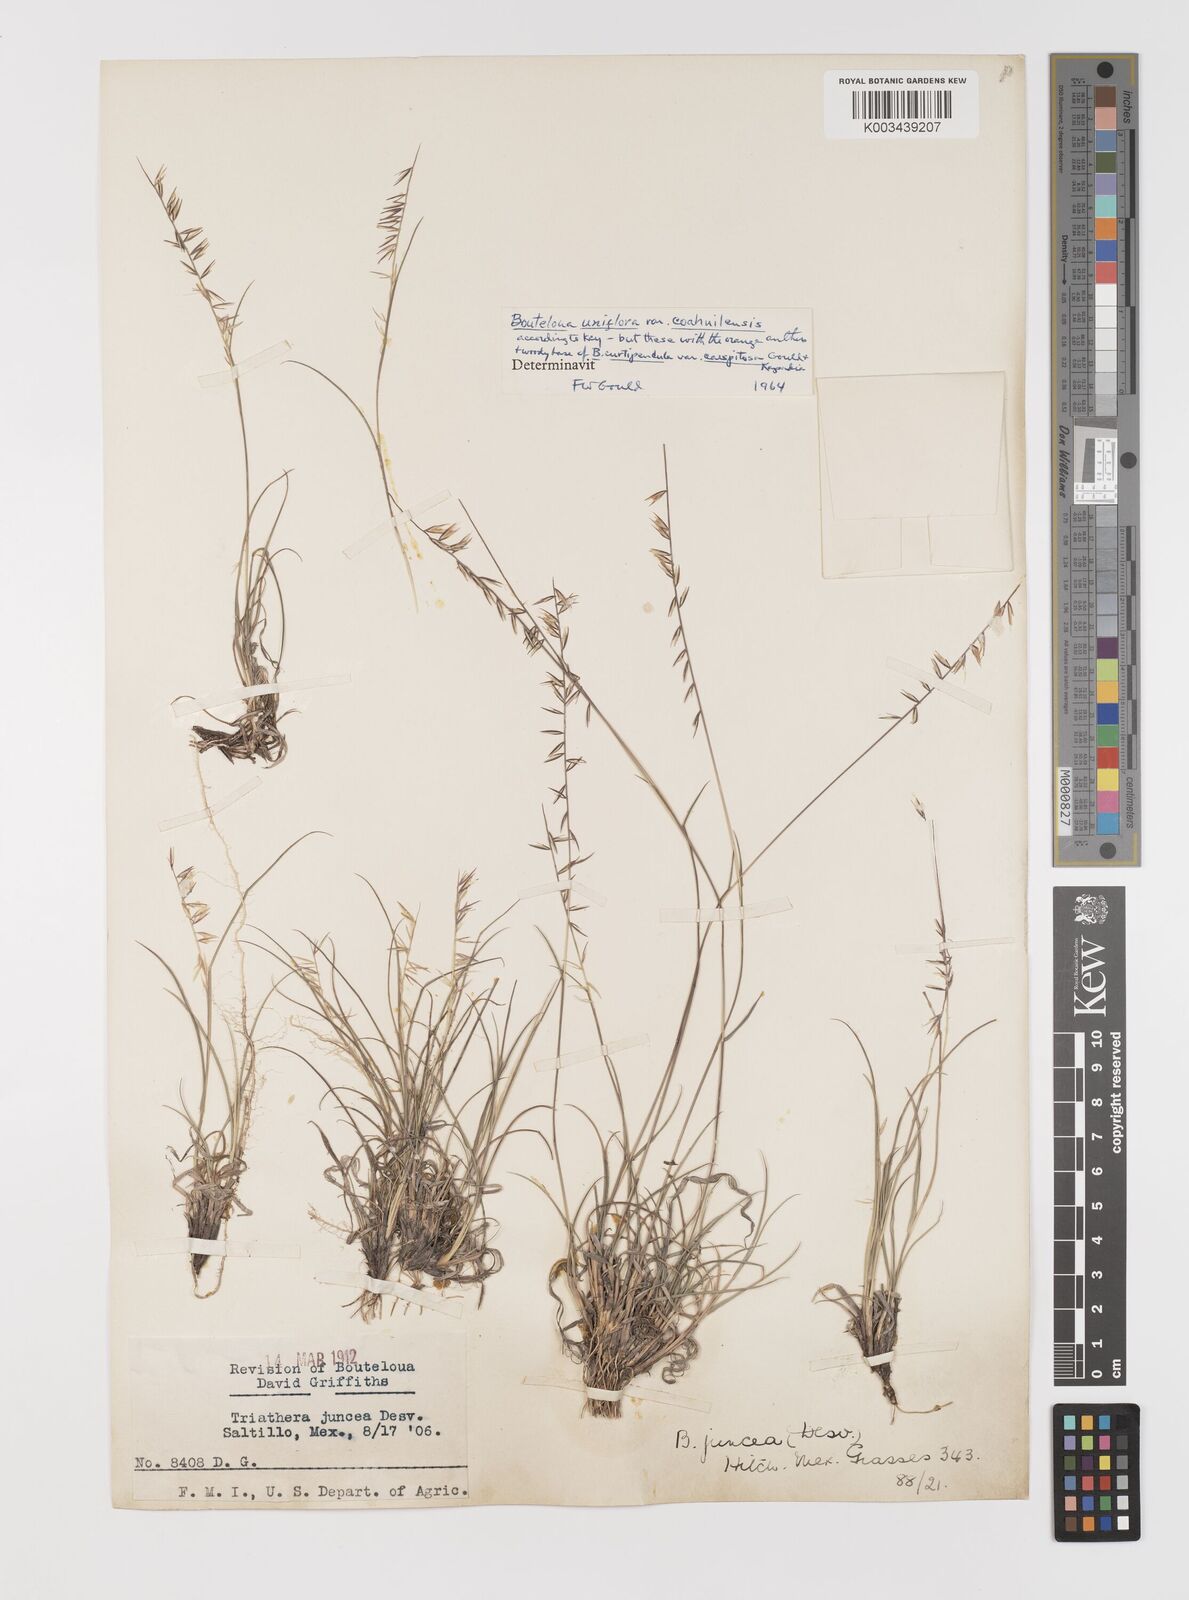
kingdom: Plantae
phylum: Tracheophyta
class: Liliopsida
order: Poales
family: Poaceae
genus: Bouteloua
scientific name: Bouteloua curtipendula
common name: Side-oats grama
